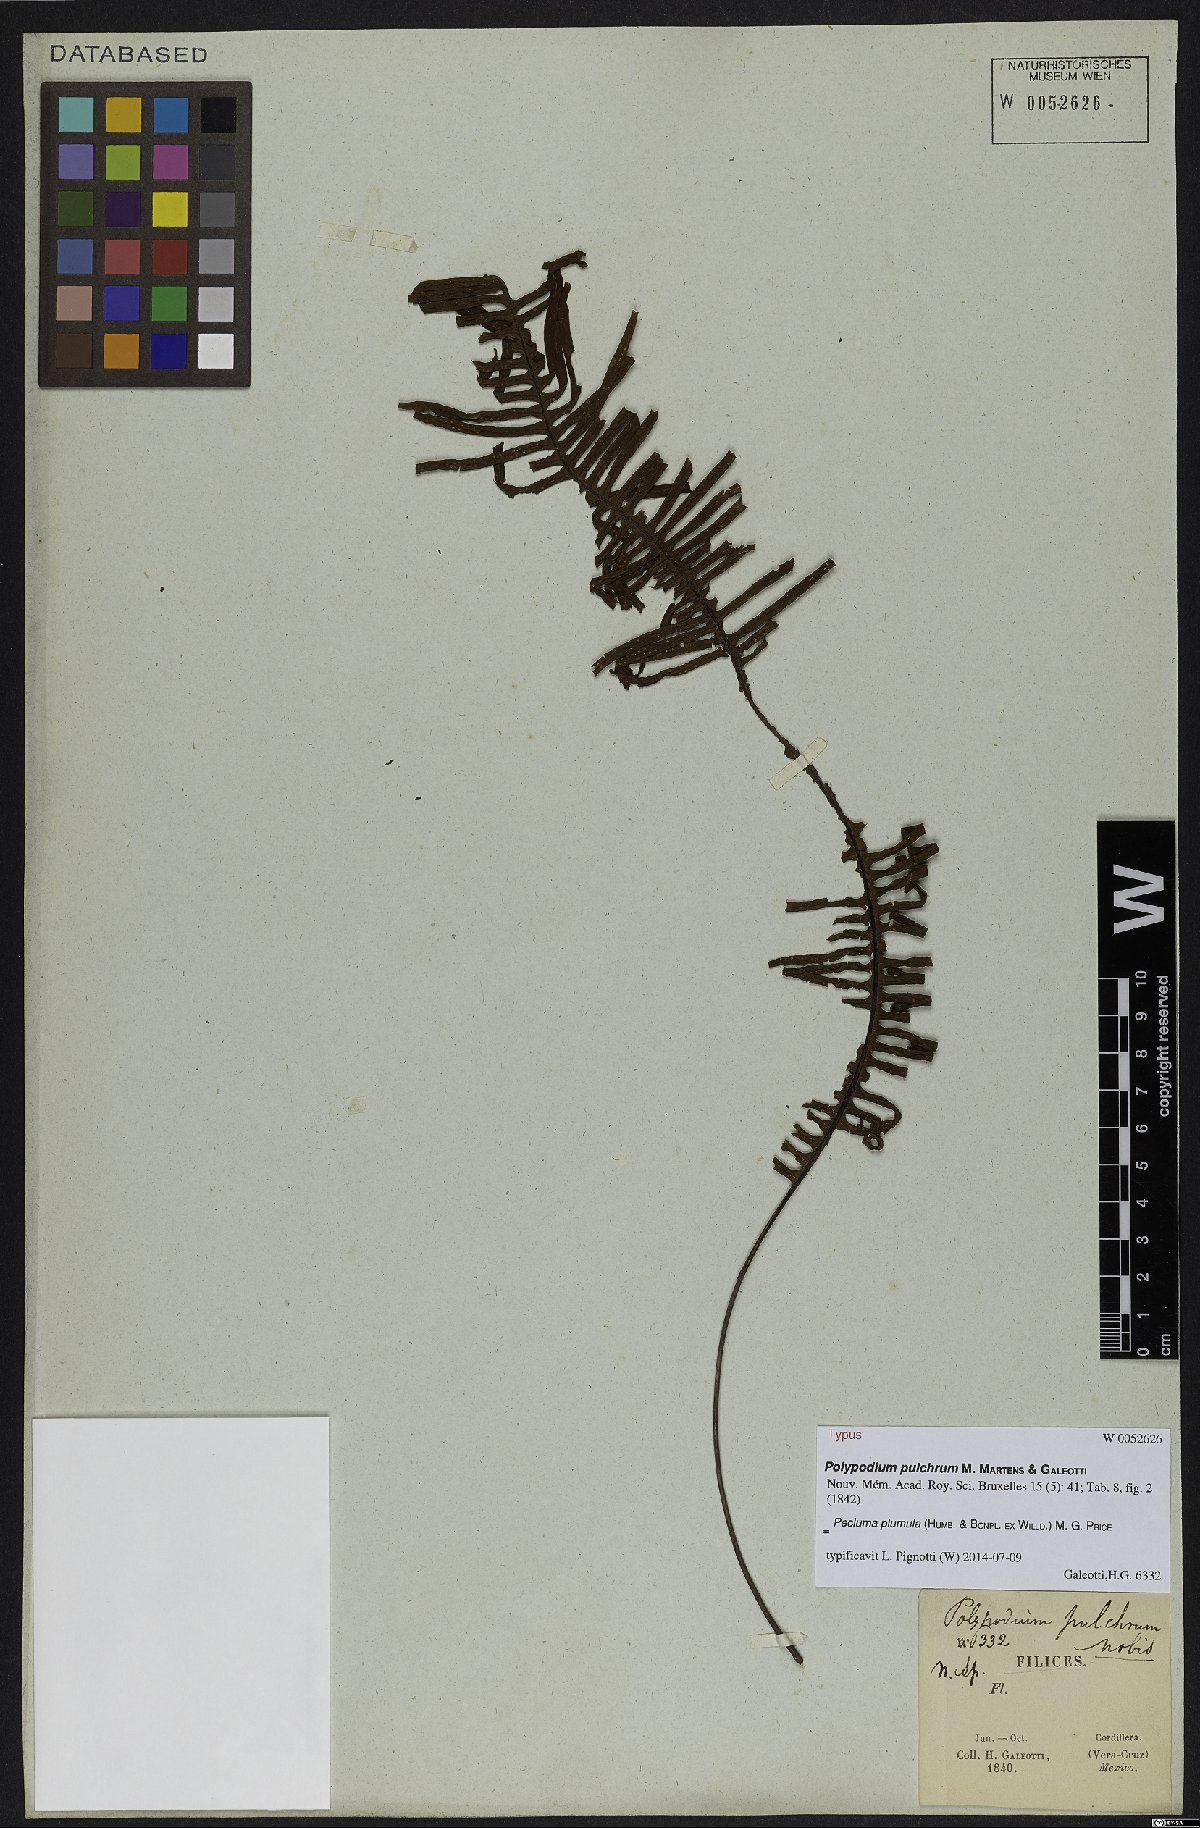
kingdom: Plantae
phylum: Tracheophyta
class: Polypodiopsida
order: Polypodiales
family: Polypodiaceae
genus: Pecluma
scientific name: Pecluma plumula
